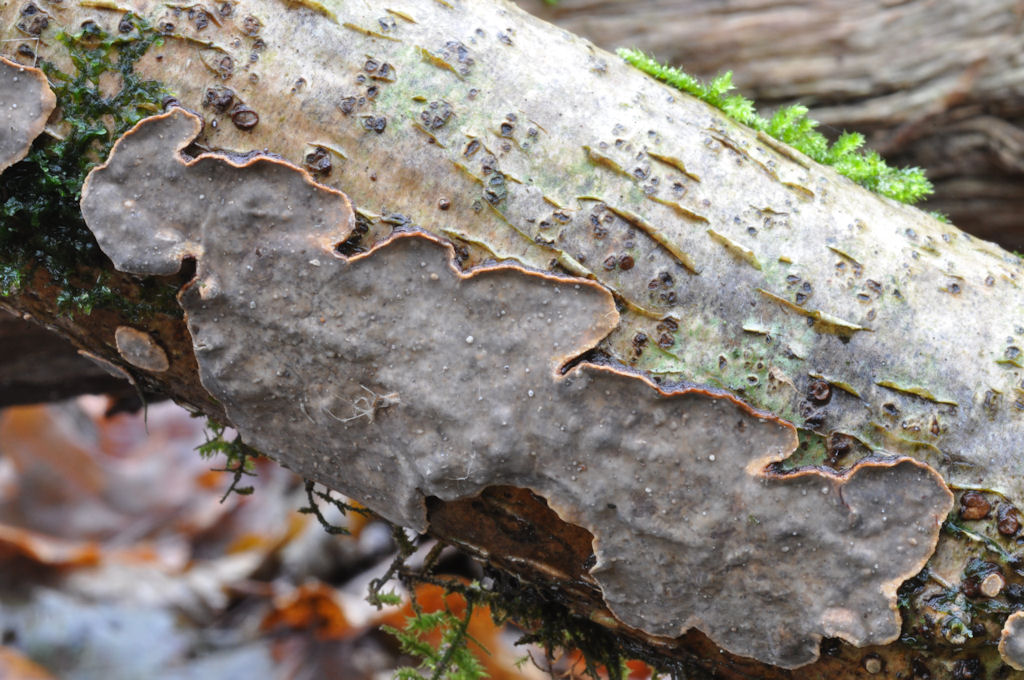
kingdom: Fungi
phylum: Basidiomycota
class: Agaricomycetes
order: Russulales
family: Stereaceae
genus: Stereum
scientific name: Stereum rugosum
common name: rynket lædersvamp
